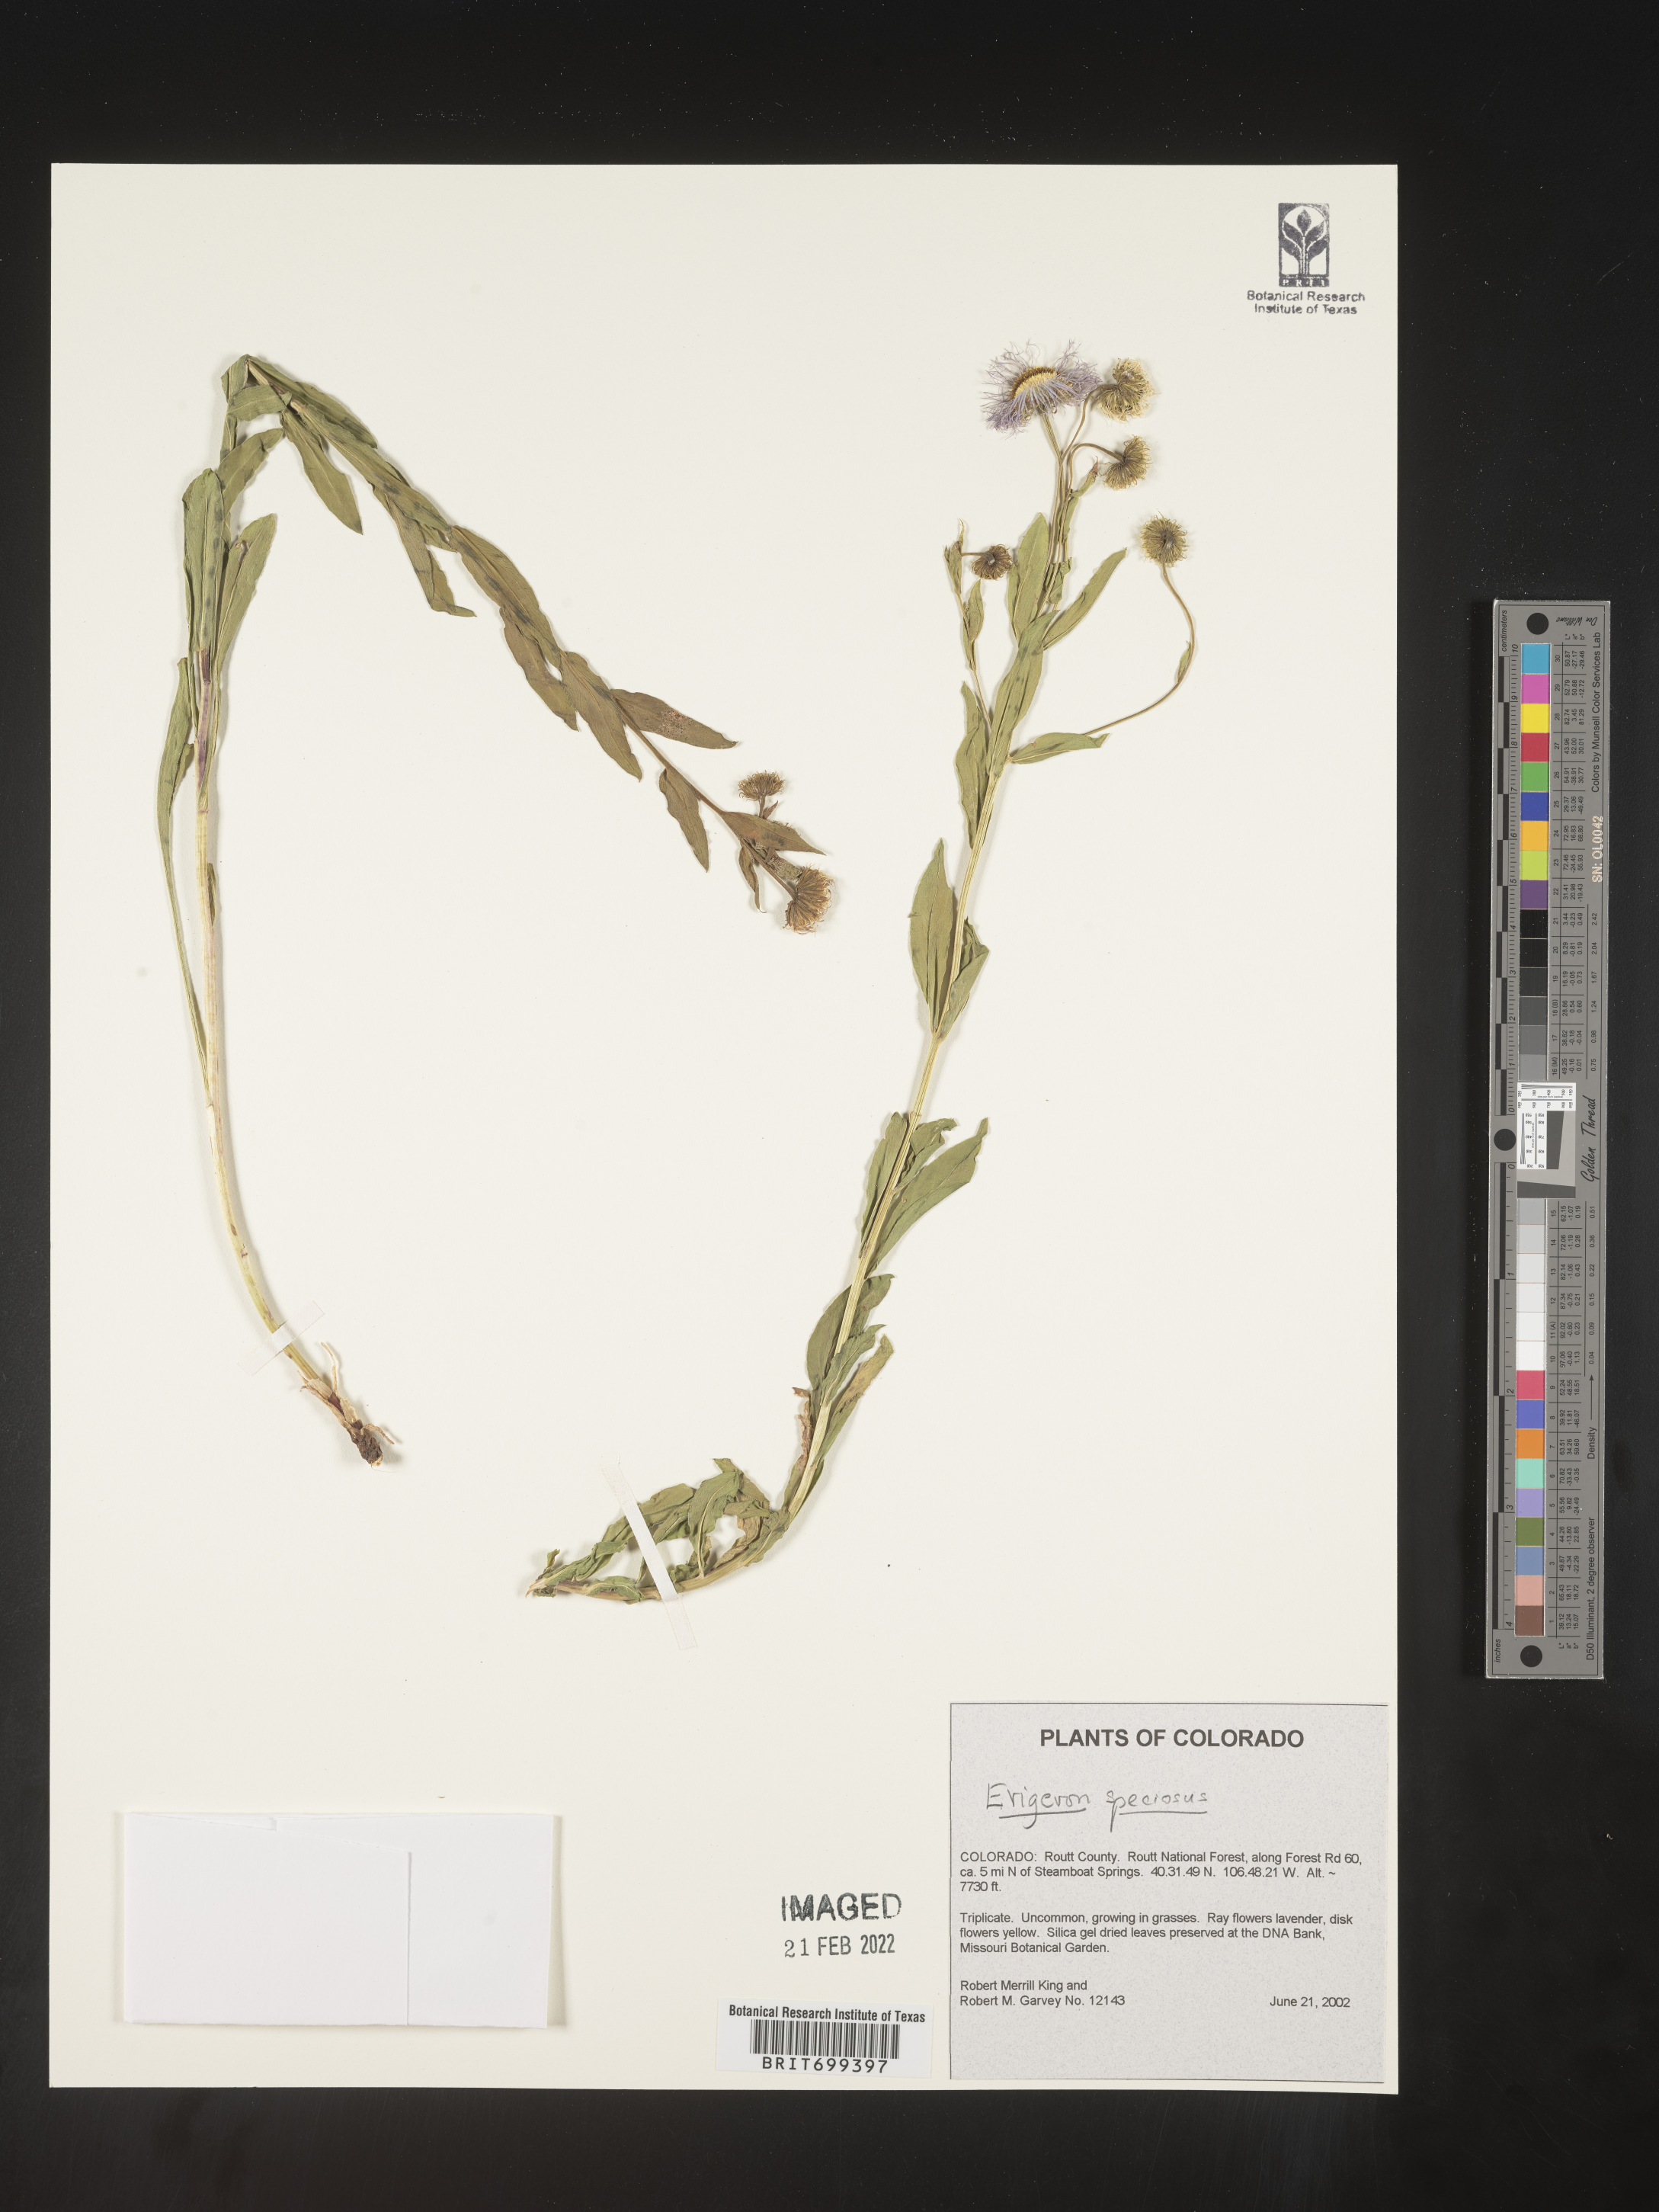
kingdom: Plantae
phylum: Tracheophyta
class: Magnoliopsida
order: Asterales
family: Asteraceae
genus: Erigeron
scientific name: Erigeron speciosus
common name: Aspen fleabane
